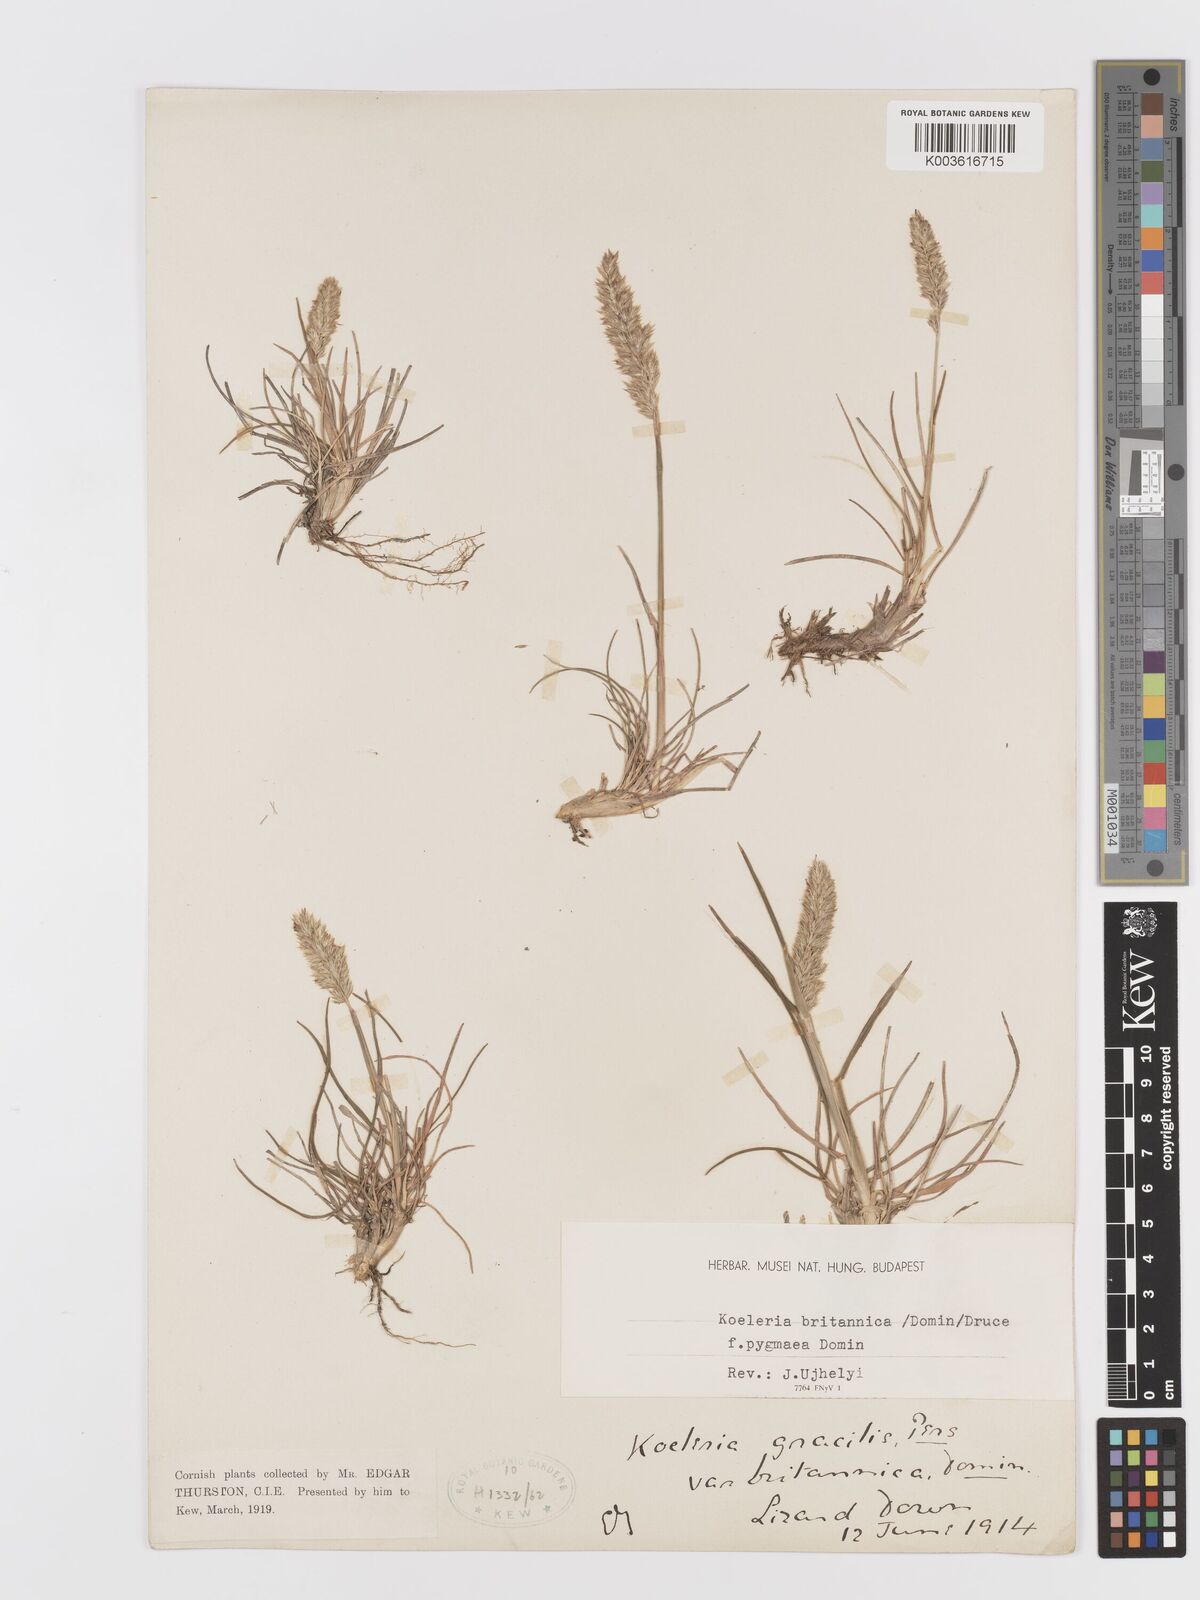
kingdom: Plantae
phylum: Tracheophyta
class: Liliopsida
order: Poales
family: Poaceae
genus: Koeleria
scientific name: Koeleria
